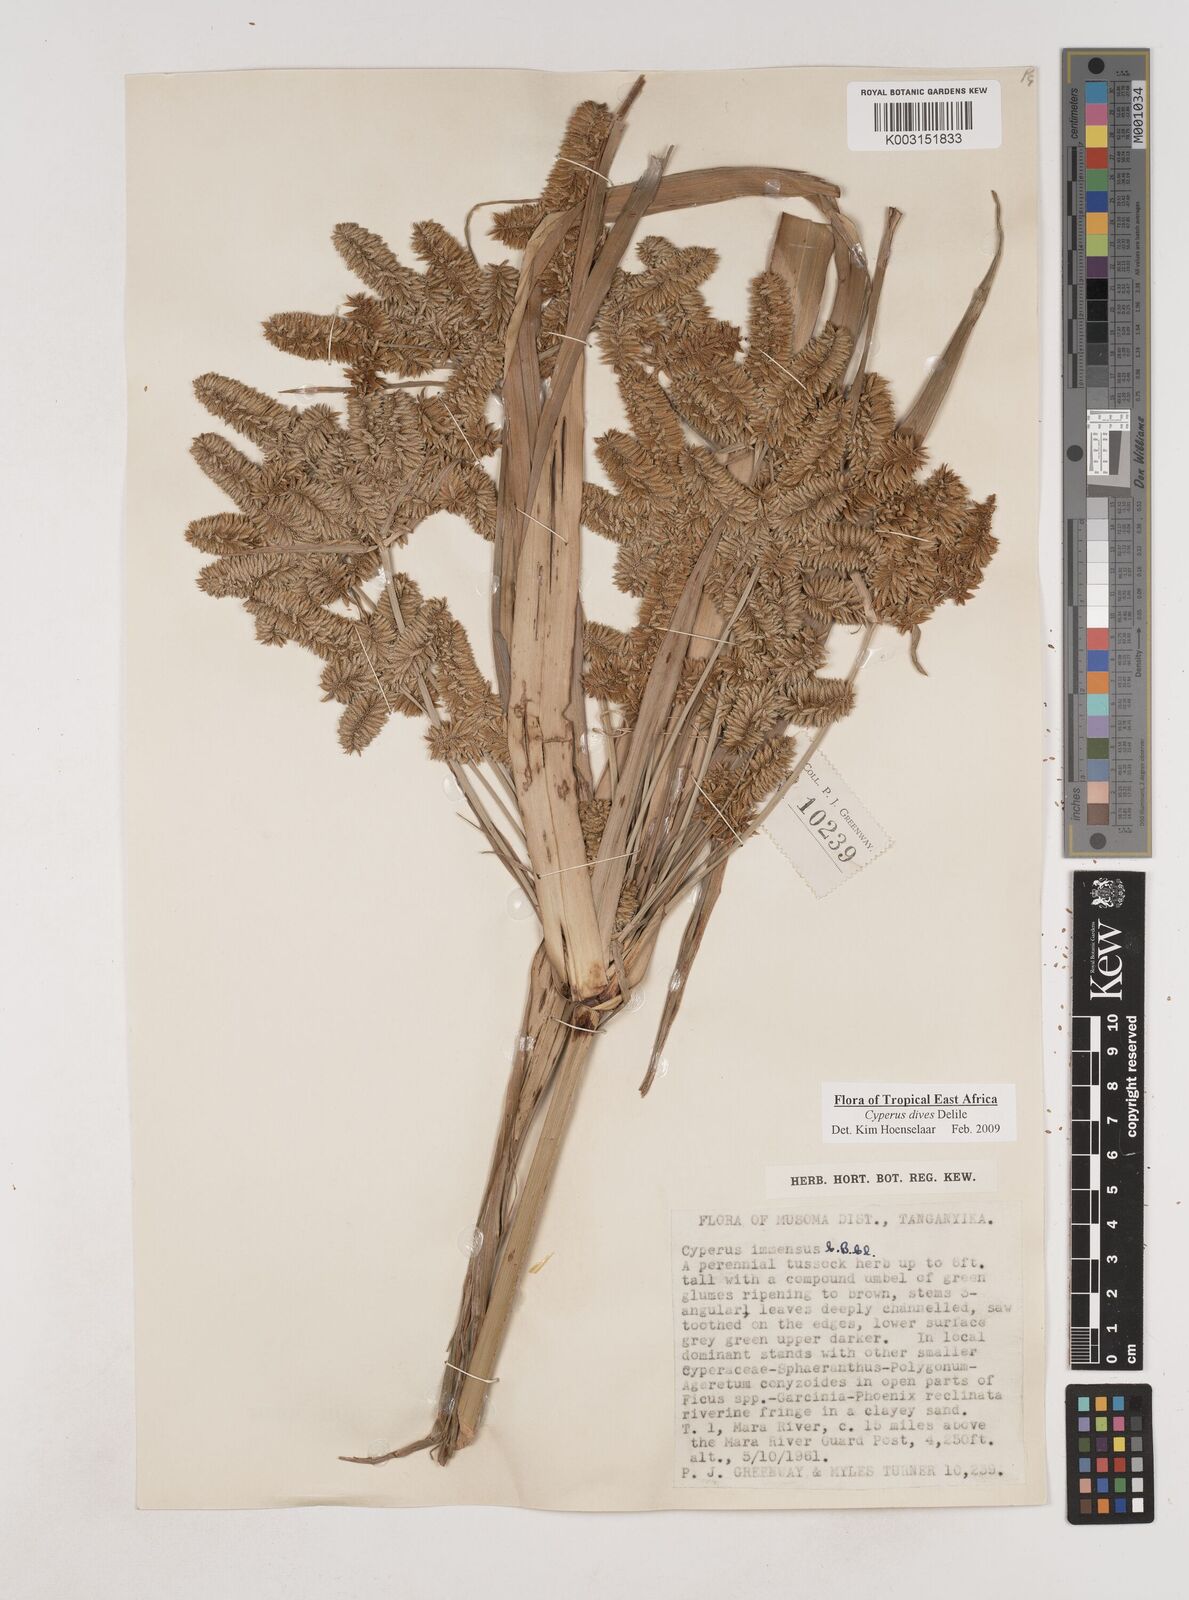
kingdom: Plantae
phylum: Tracheophyta
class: Liliopsida
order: Poales
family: Cyperaceae
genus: Cyperus
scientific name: Cyperus dives
